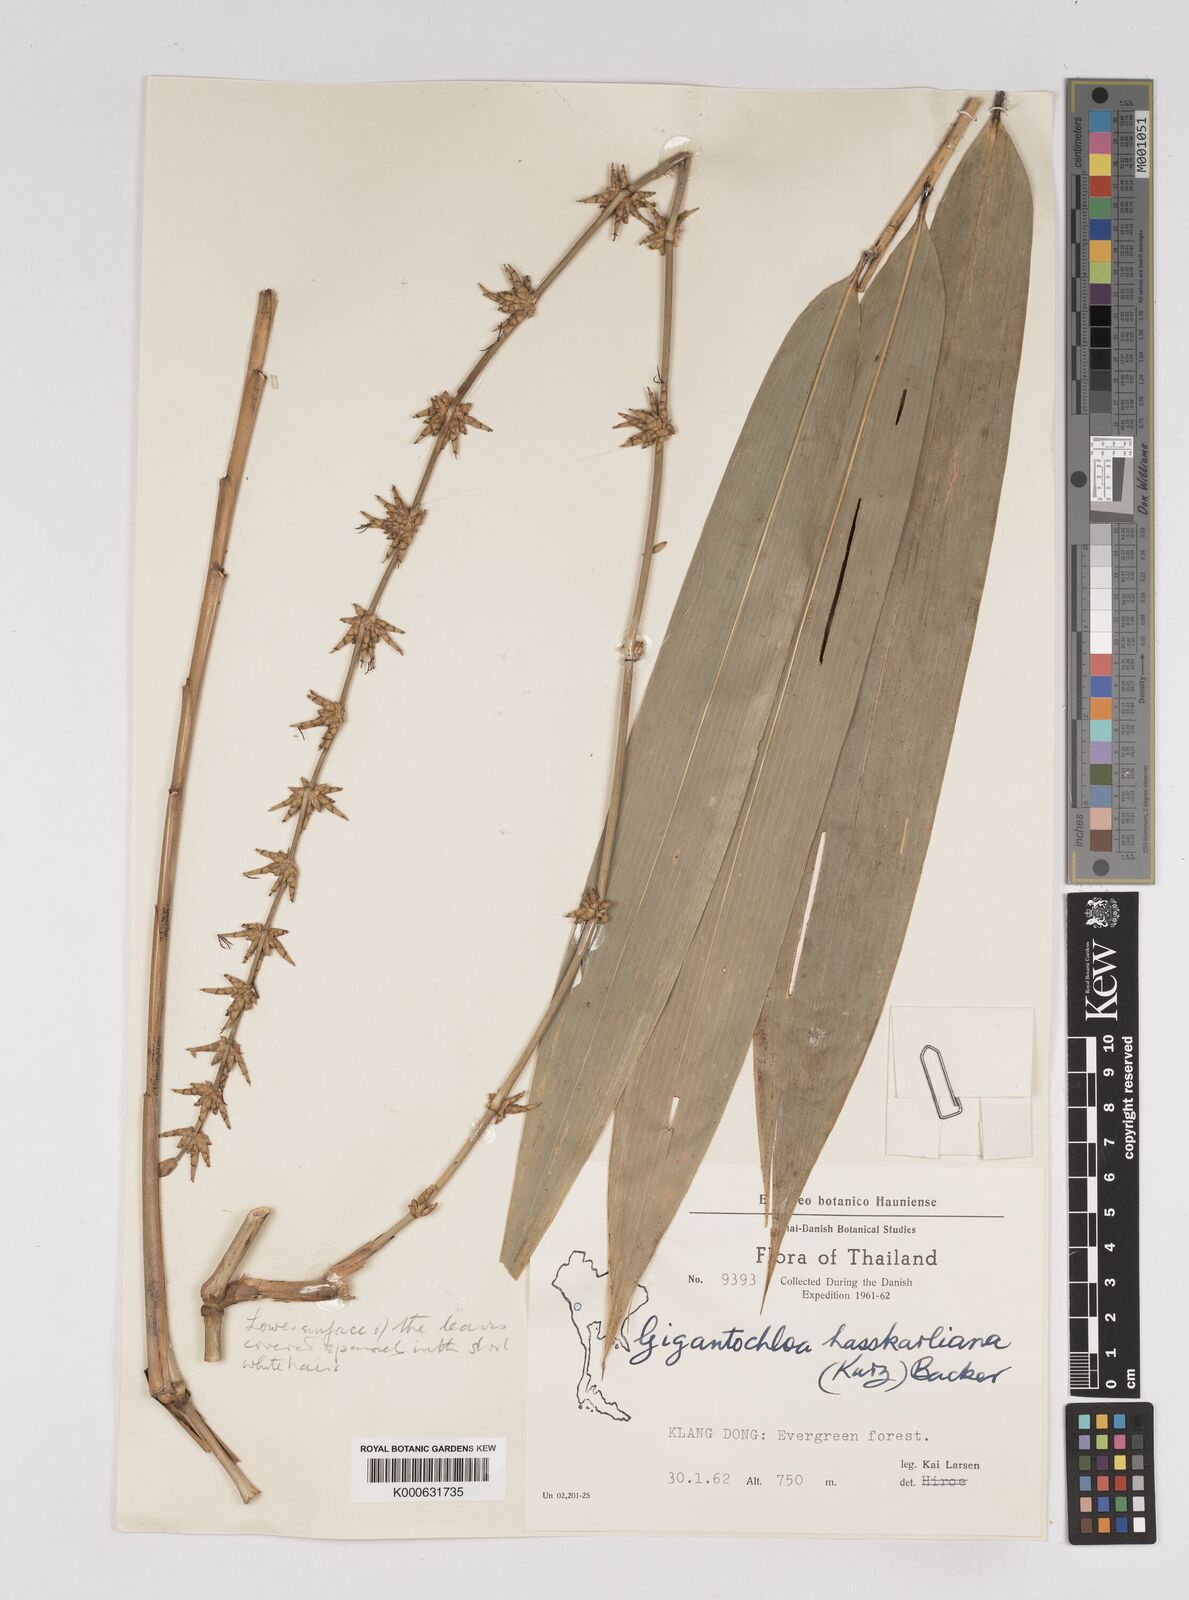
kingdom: Plantae
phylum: Tracheophyta
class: Liliopsida
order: Poales
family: Poaceae
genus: Gigantochloa
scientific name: Gigantochloa
